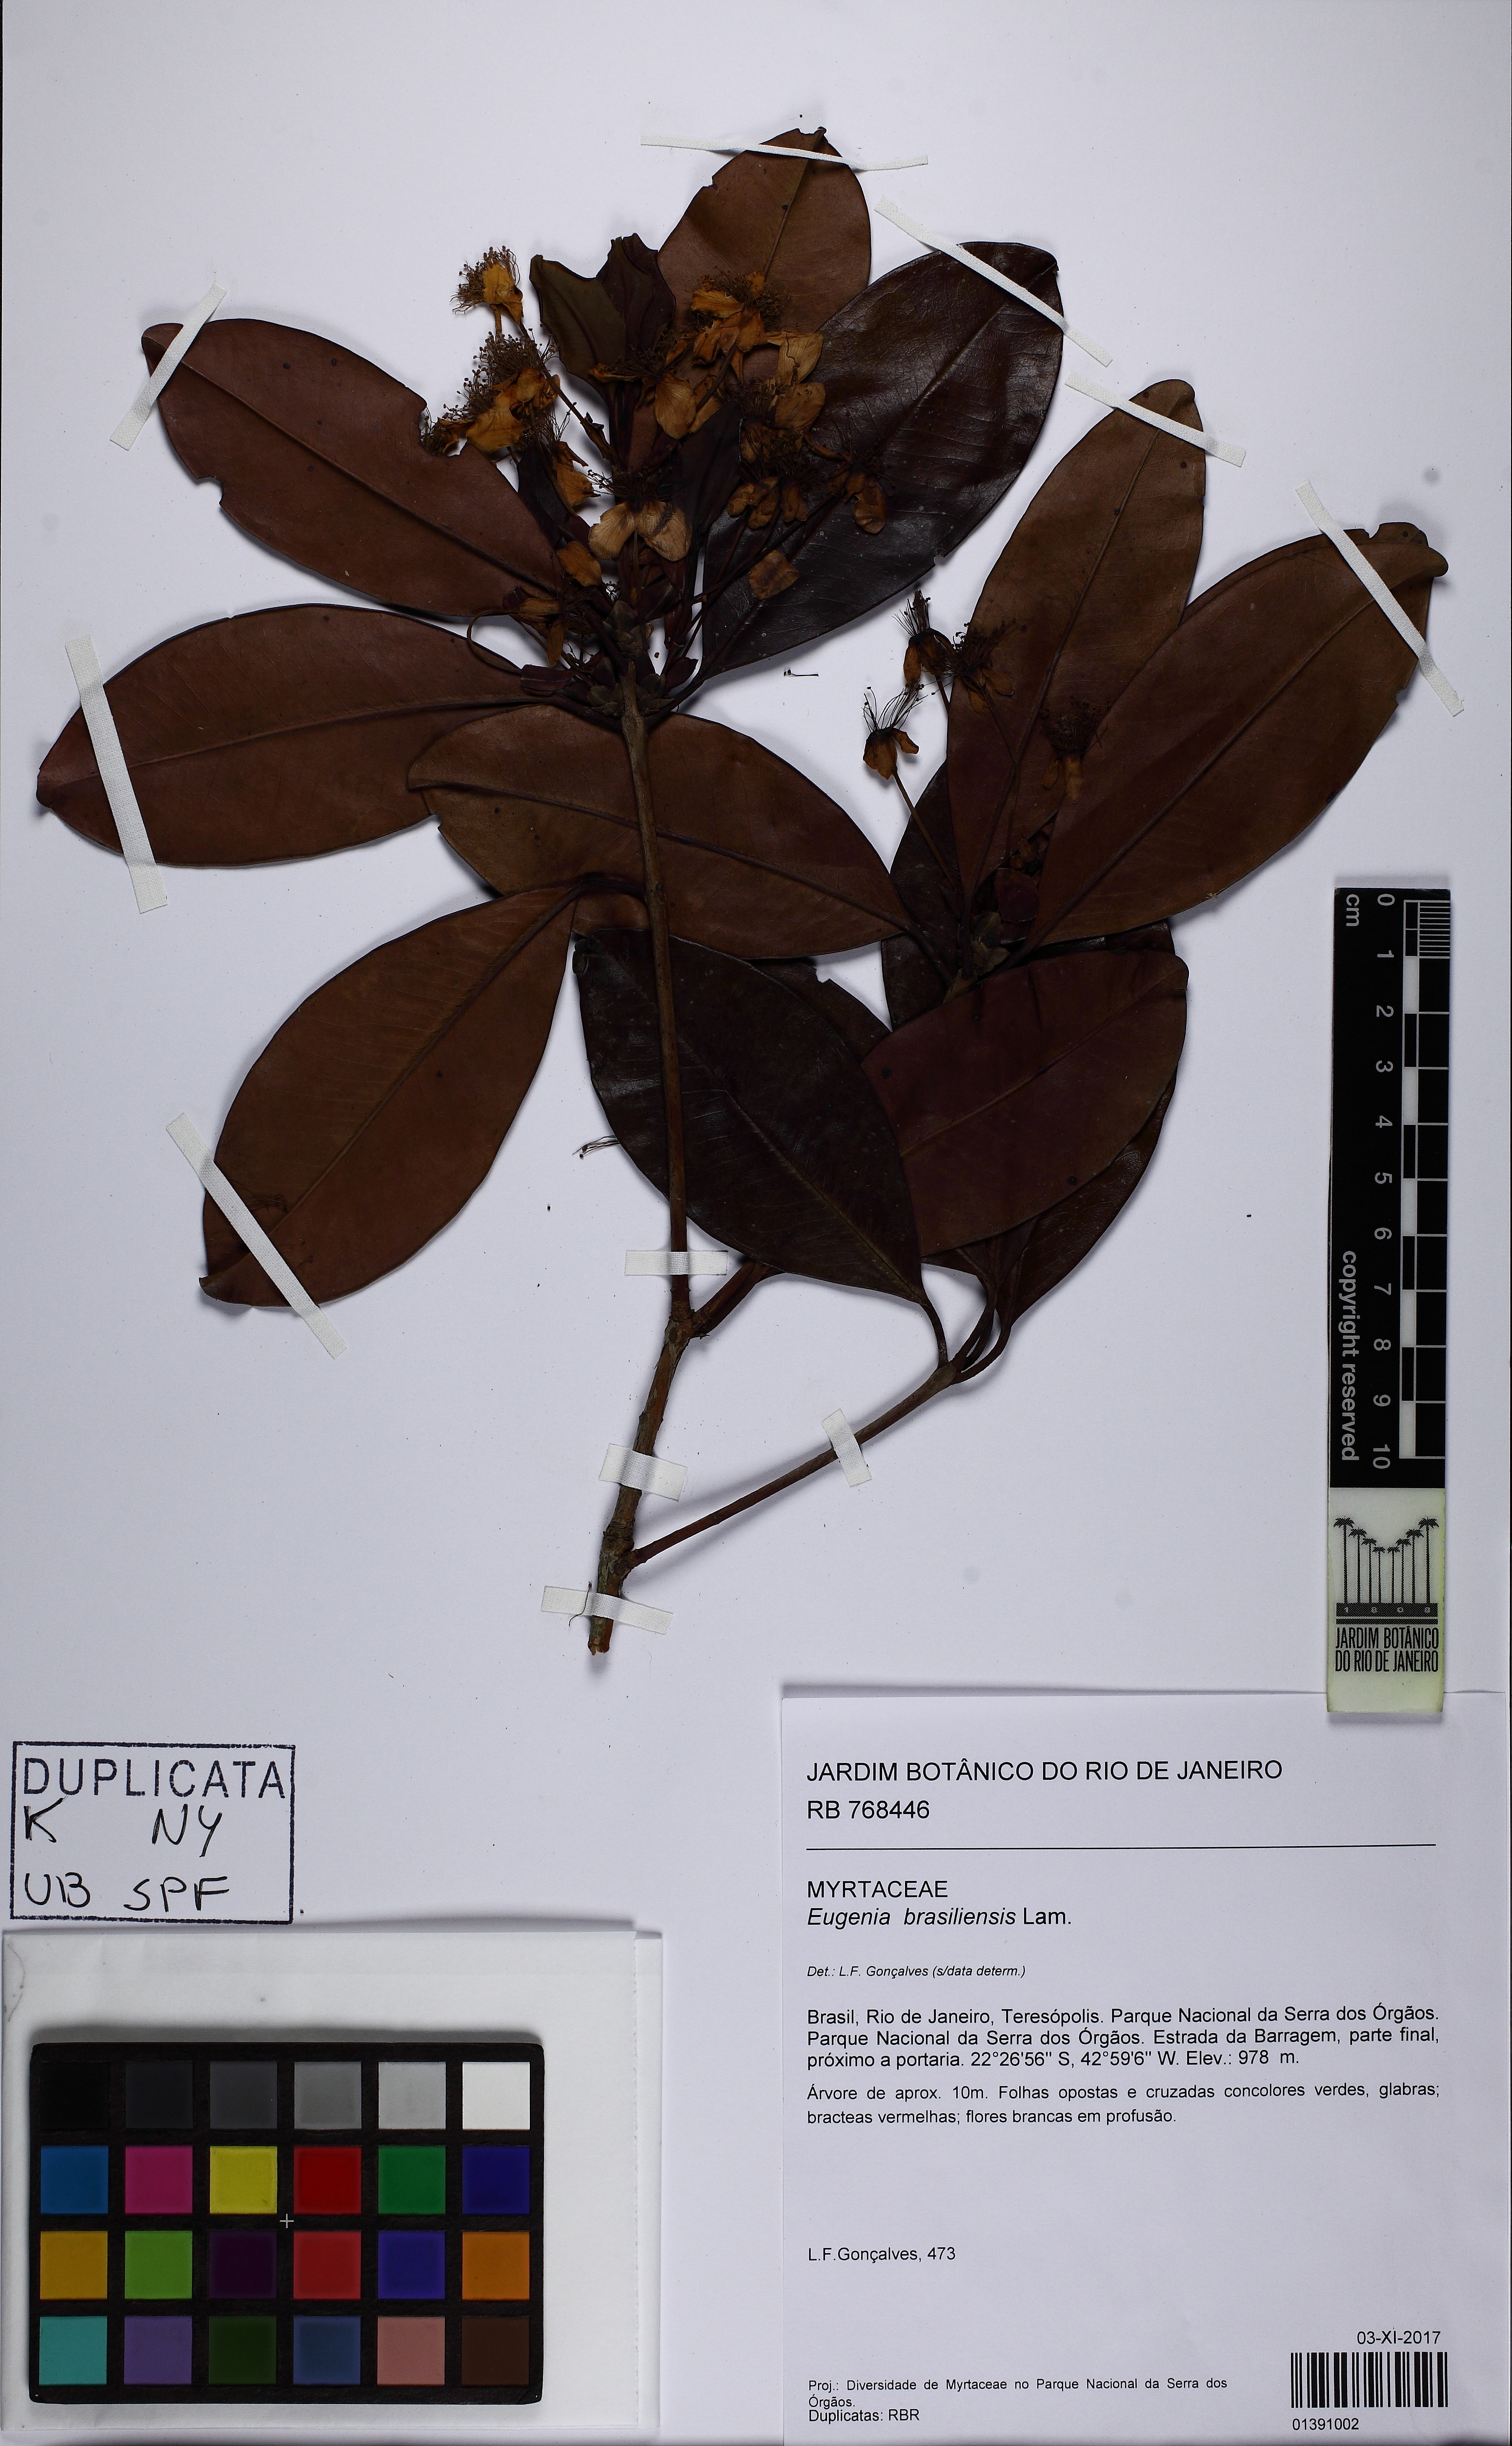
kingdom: Plantae
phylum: Tracheophyta
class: Magnoliopsida
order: Myrtales
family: Myrtaceae
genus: Eugenia
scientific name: Eugenia brasiliensis
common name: Grumichama
